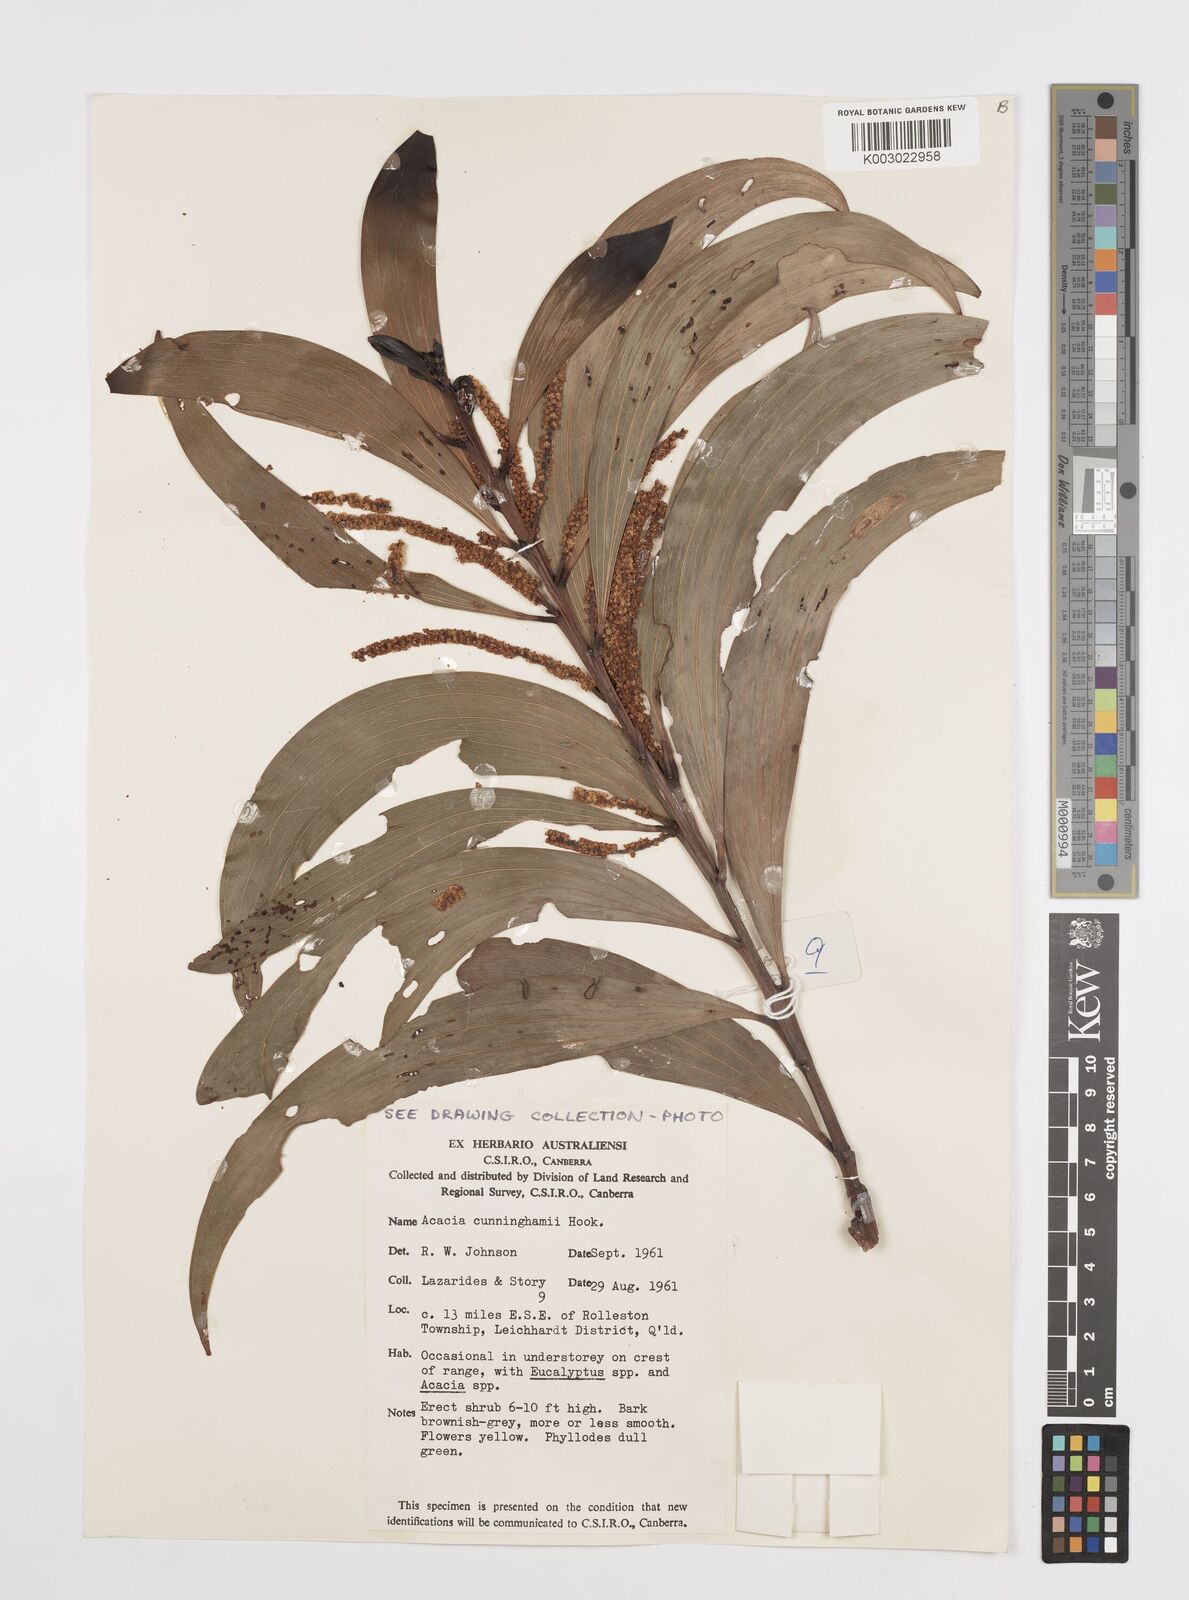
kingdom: Plantae
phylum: Tracheophyta
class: Magnoliopsida
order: Fabales
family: Fabaceae
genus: Acacia
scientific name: Acacia longispicata
